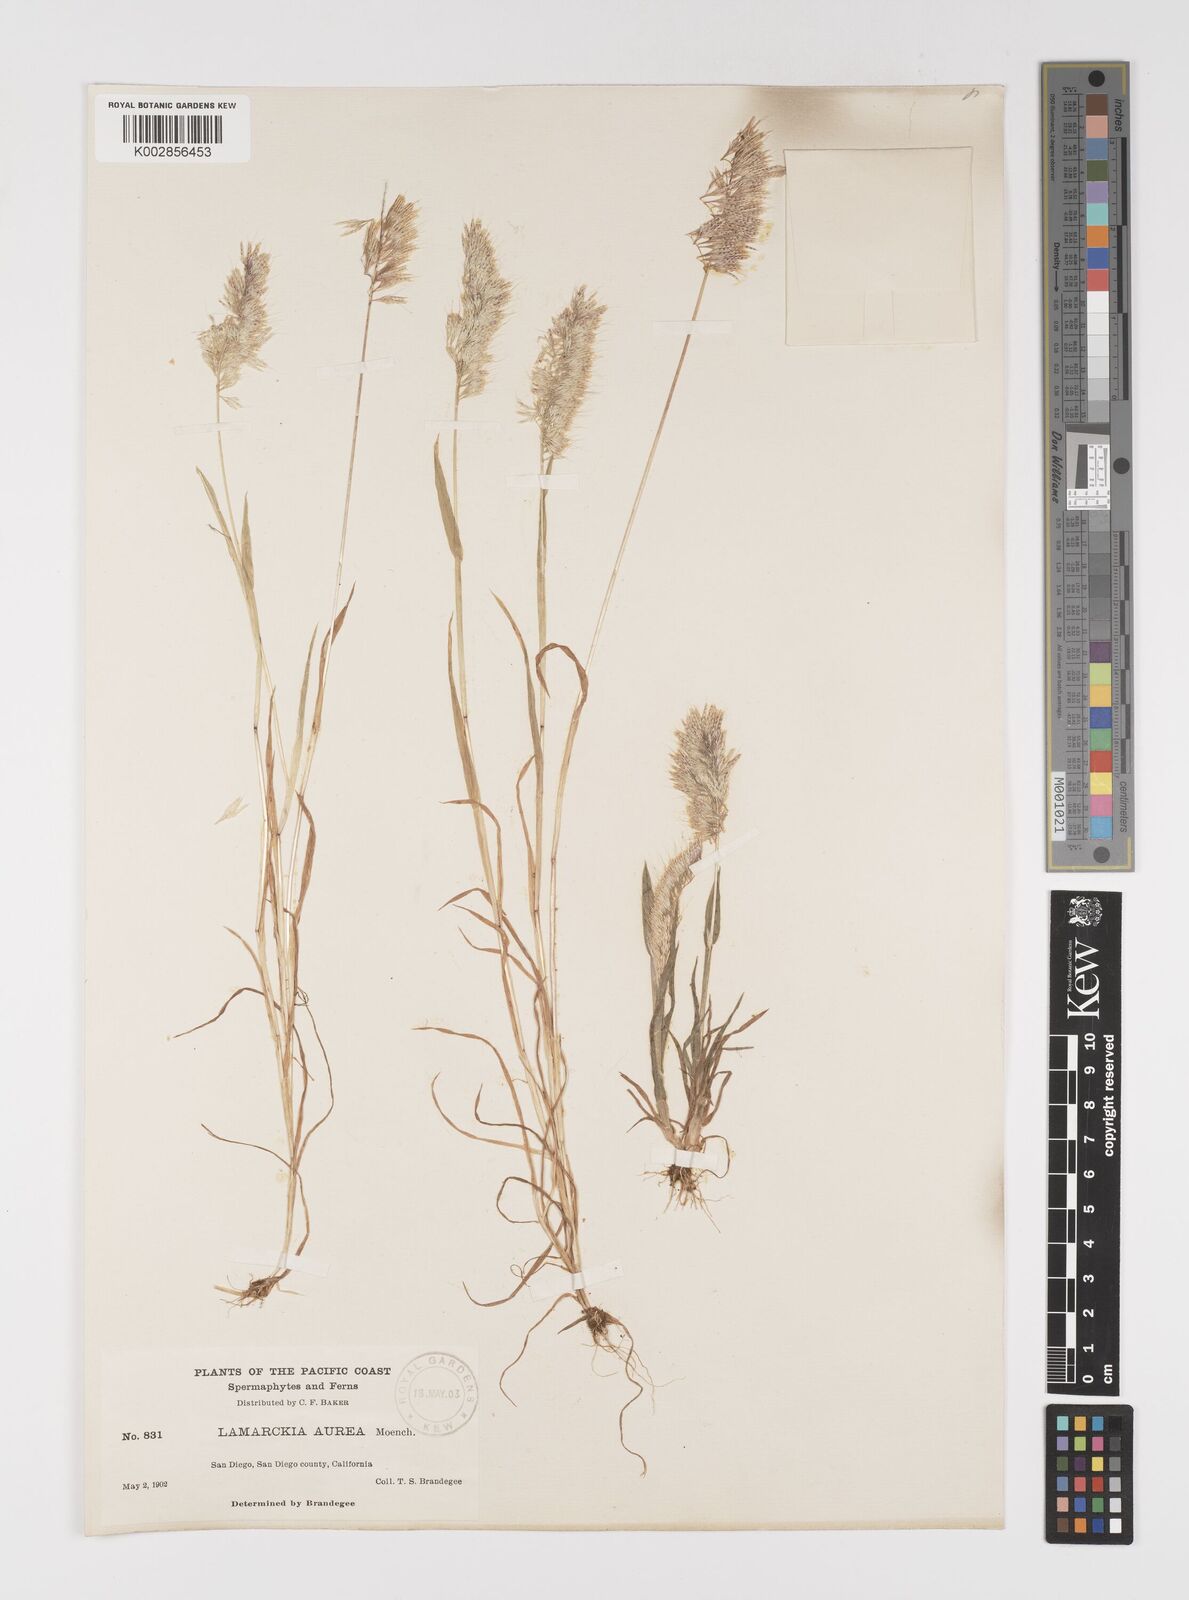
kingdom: Plantae
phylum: Tracheophyta
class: Liliopsida
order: Poales
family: Poaceae
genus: Lamarckia
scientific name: Lamarckia aurea
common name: Golden dog's-tail
